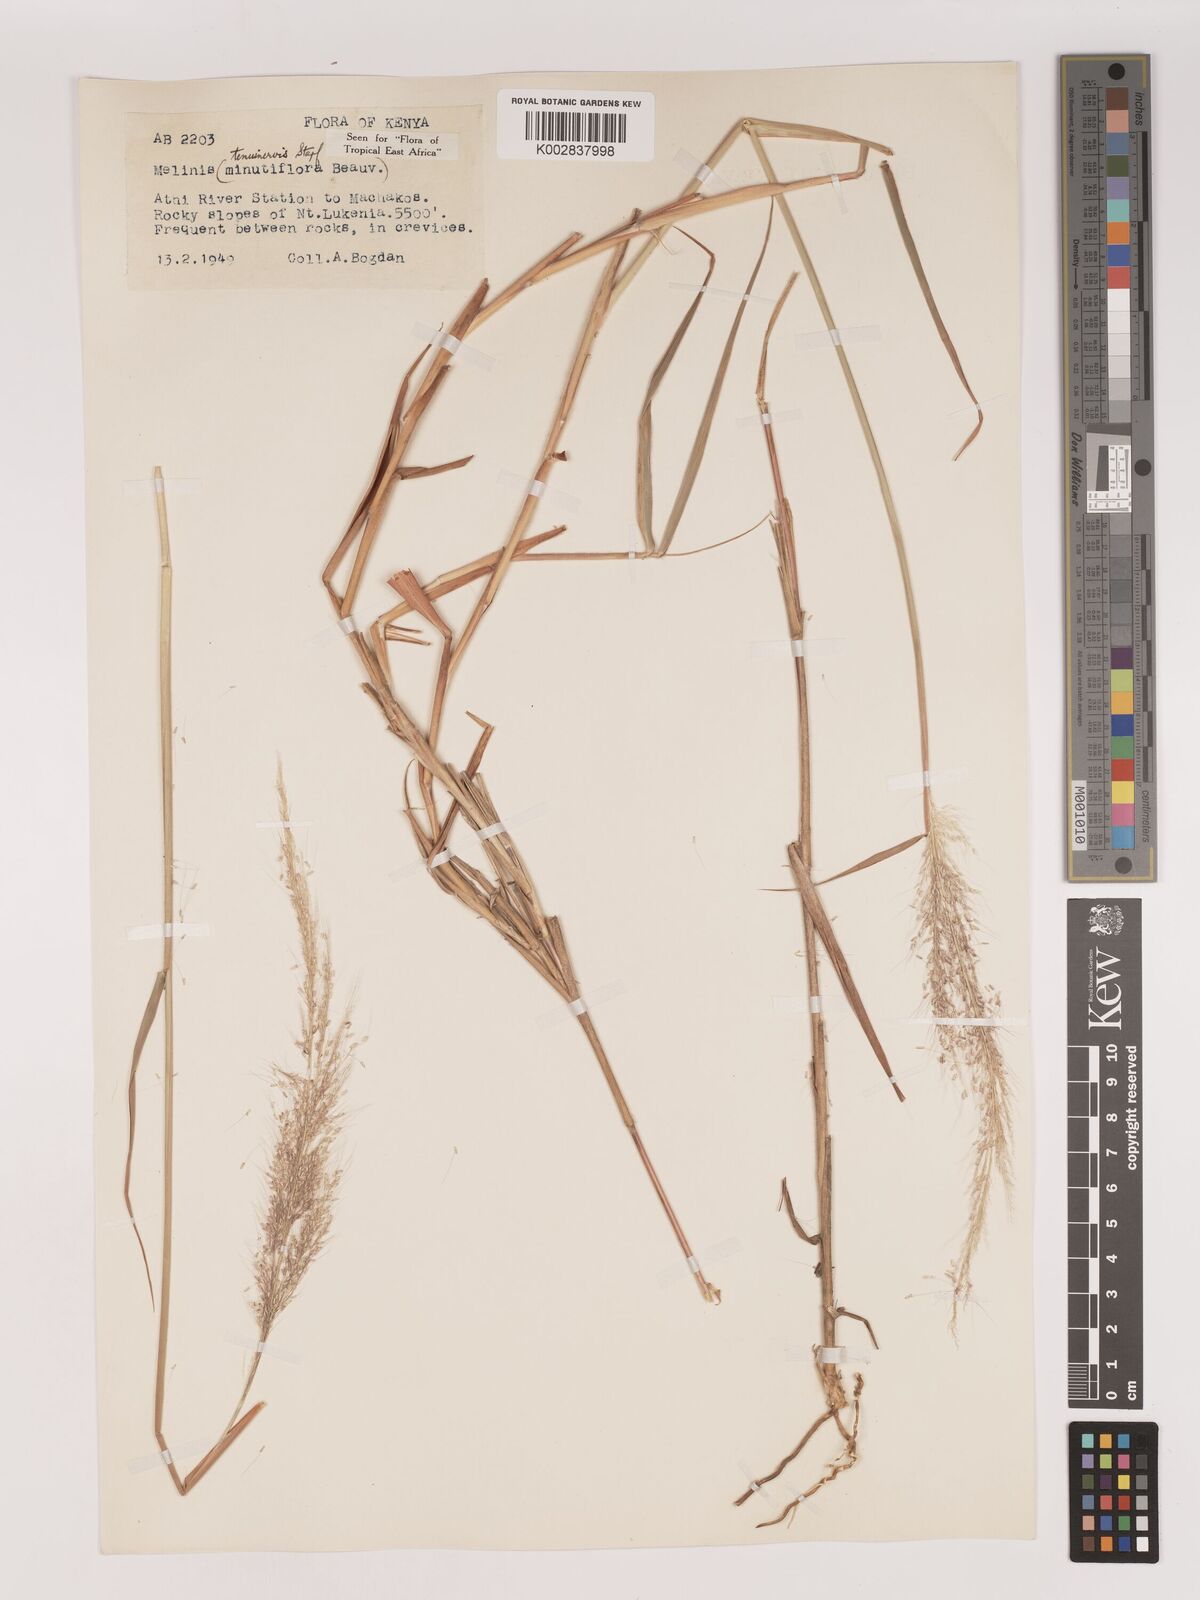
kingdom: Plantae
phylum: Tracheophyta
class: Liliopsida
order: Poales
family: Poaceae
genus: Melinis
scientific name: Melinis minutiflora
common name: Molassesgrass
